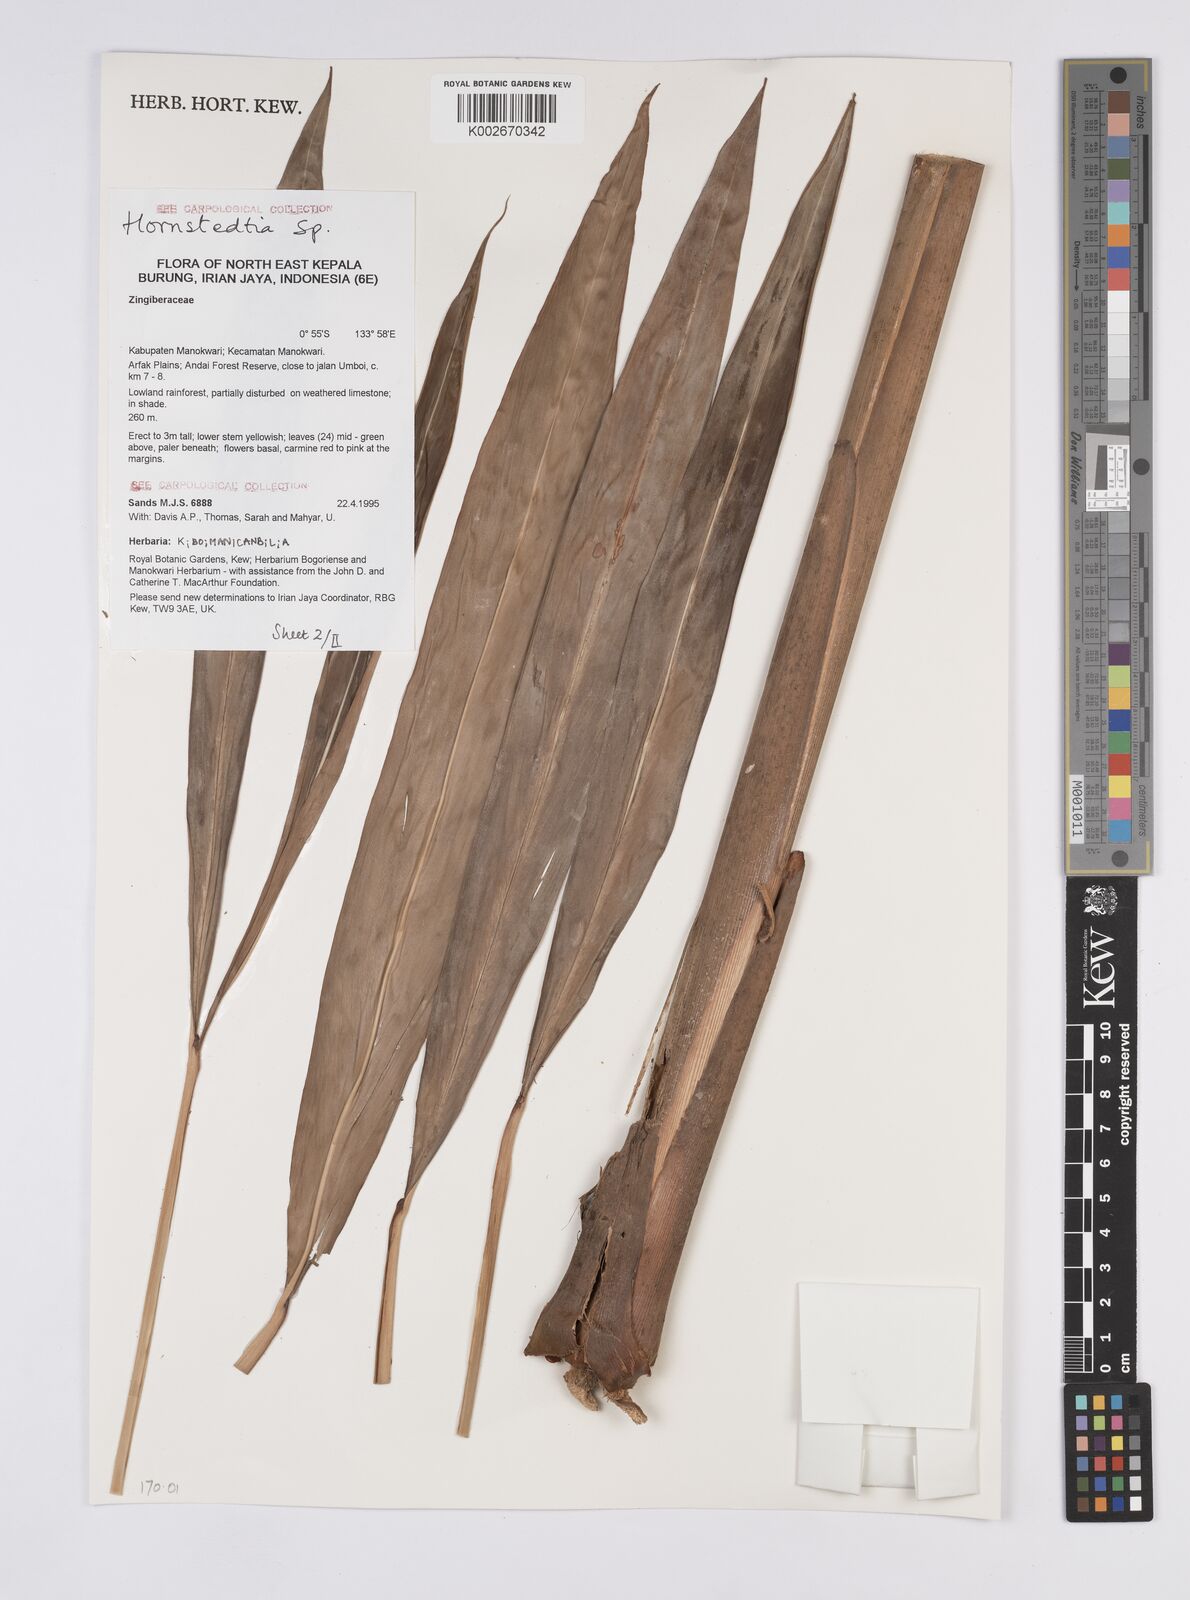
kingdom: Plantae
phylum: Tracheophyta
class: Liliopsida
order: Zingiberales
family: Zingiberaceae
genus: Hornstedtia
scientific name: Hornstedtia
